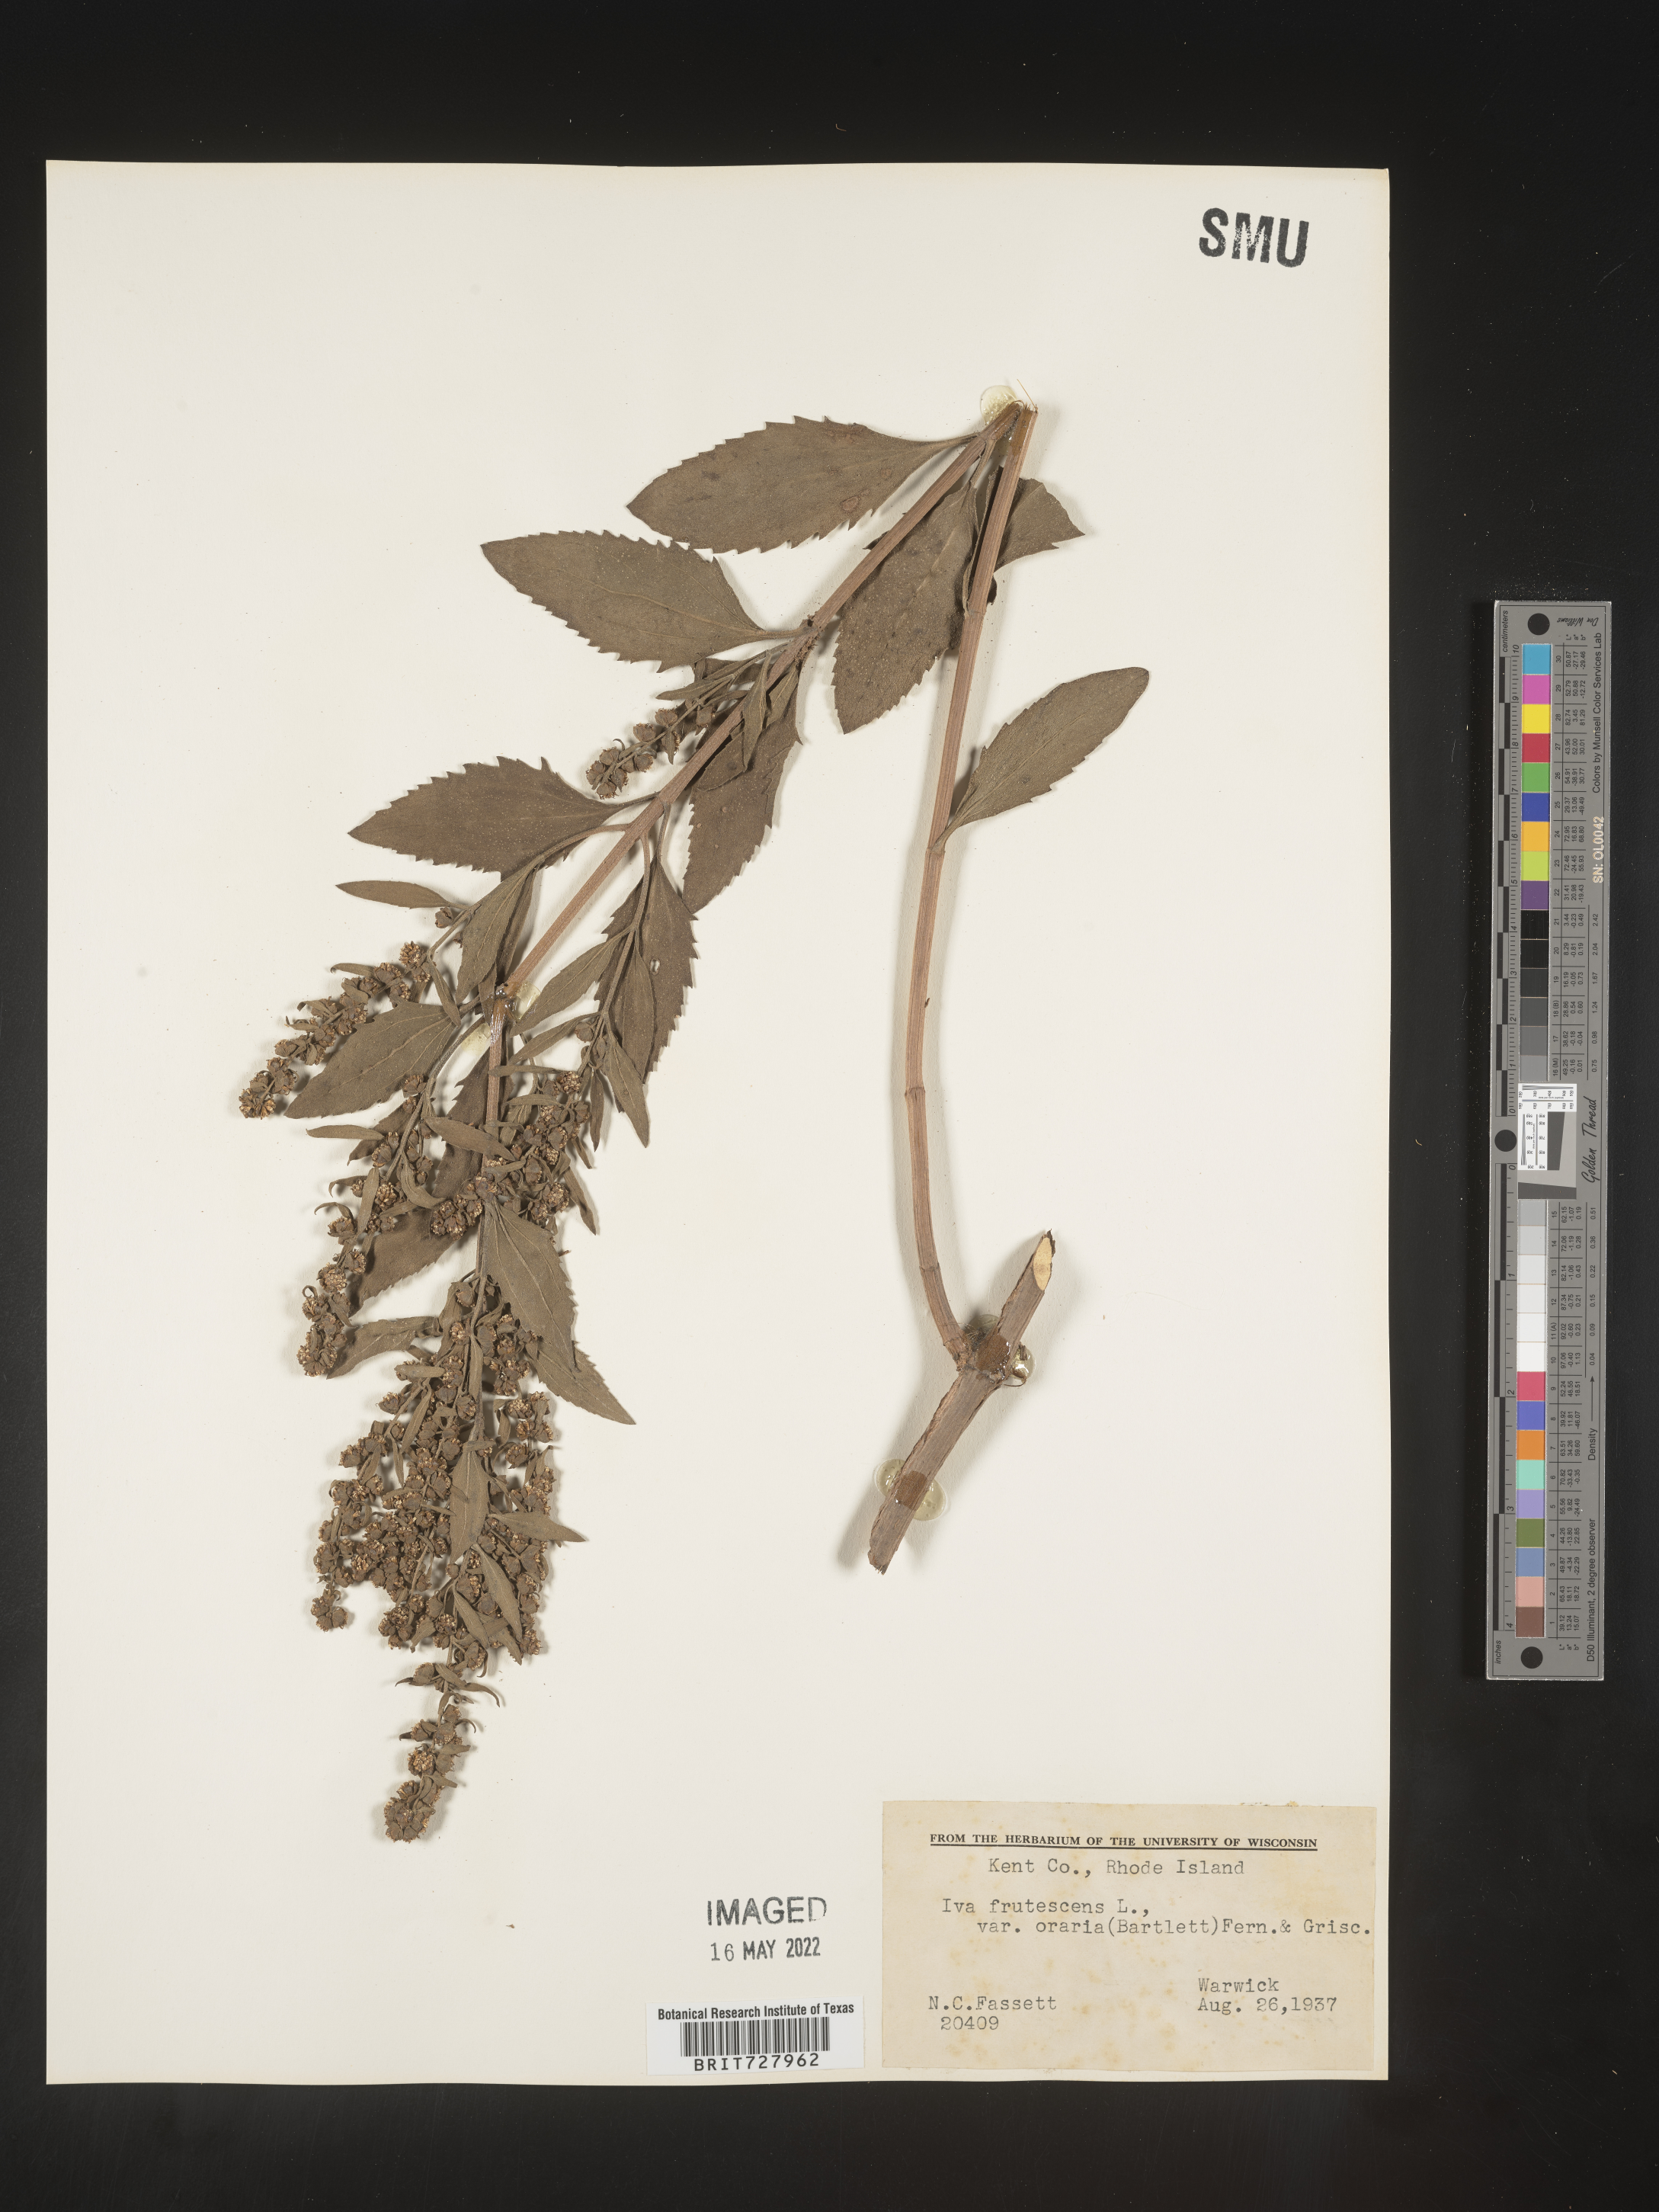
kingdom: Plantae
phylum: Tracheophyta
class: Magnoliopsida
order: Asterales
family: Asteraceae
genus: Iva
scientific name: Iva frutescens
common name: Big-leaved marsh-elder
